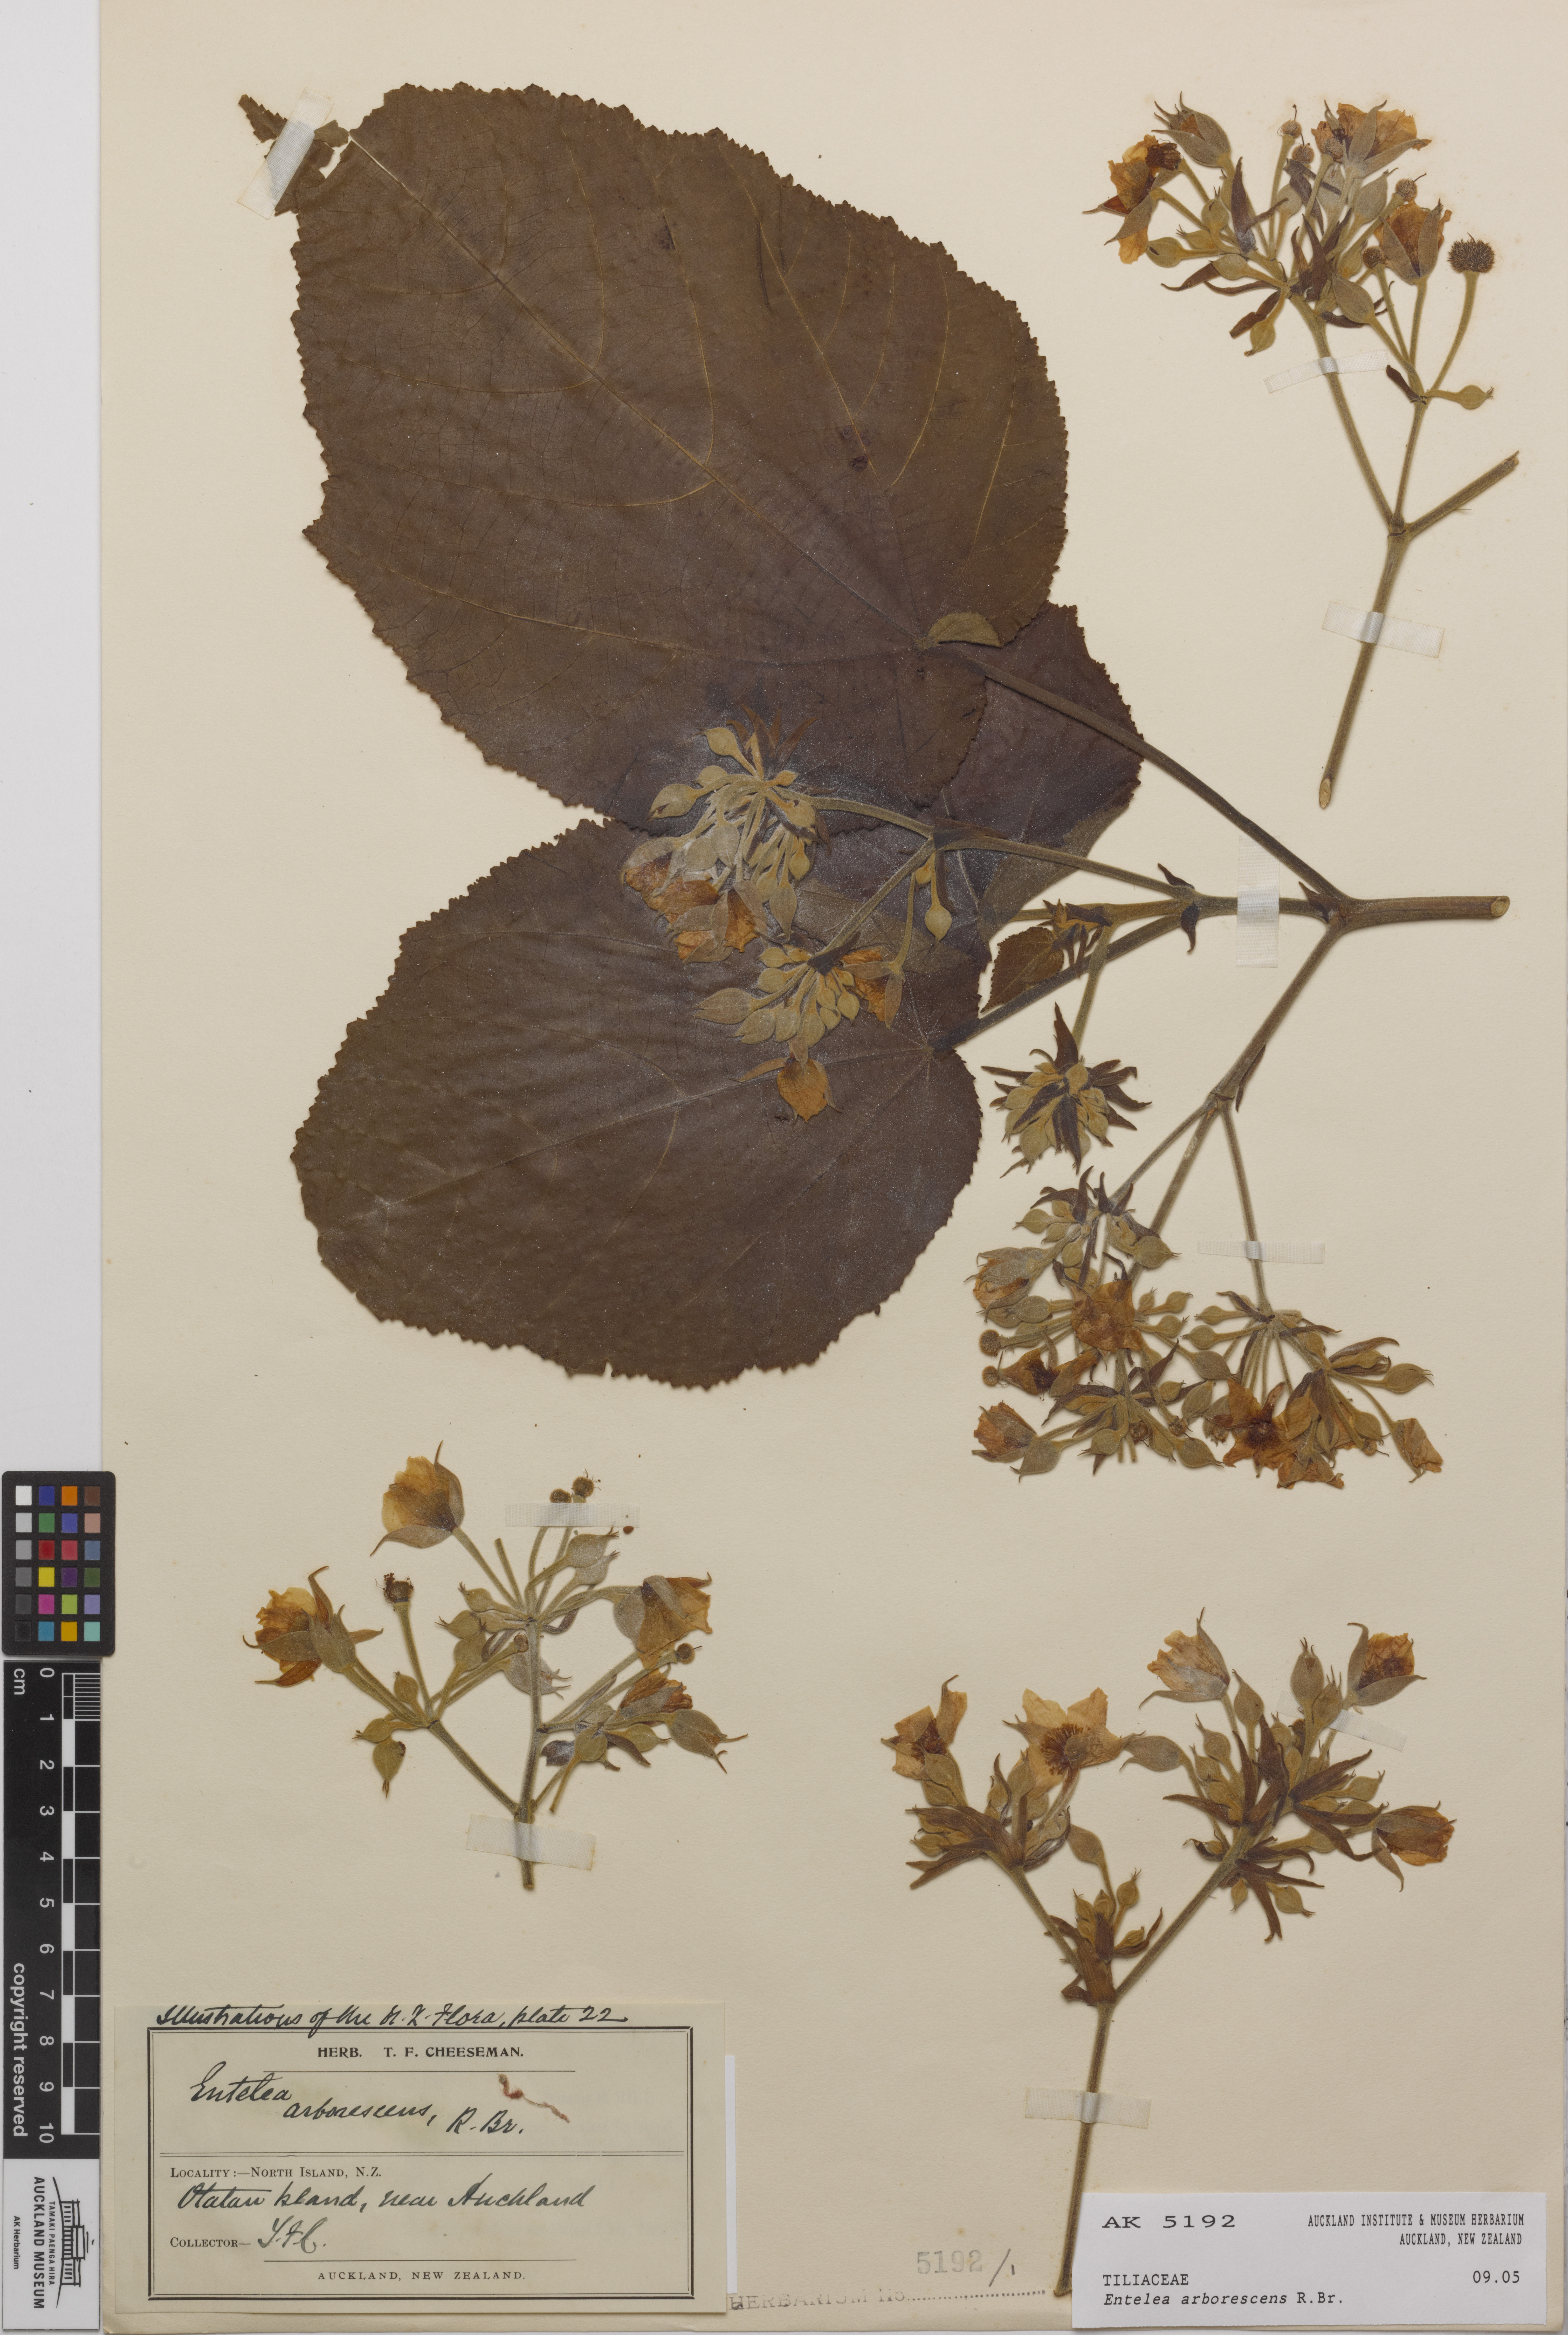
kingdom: Plantae
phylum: Tracheophyta
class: Magnoliopsida
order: Malvales
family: Malvaceae
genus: Entelea
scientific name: Entelea arborescens
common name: New zealand-mulberry
